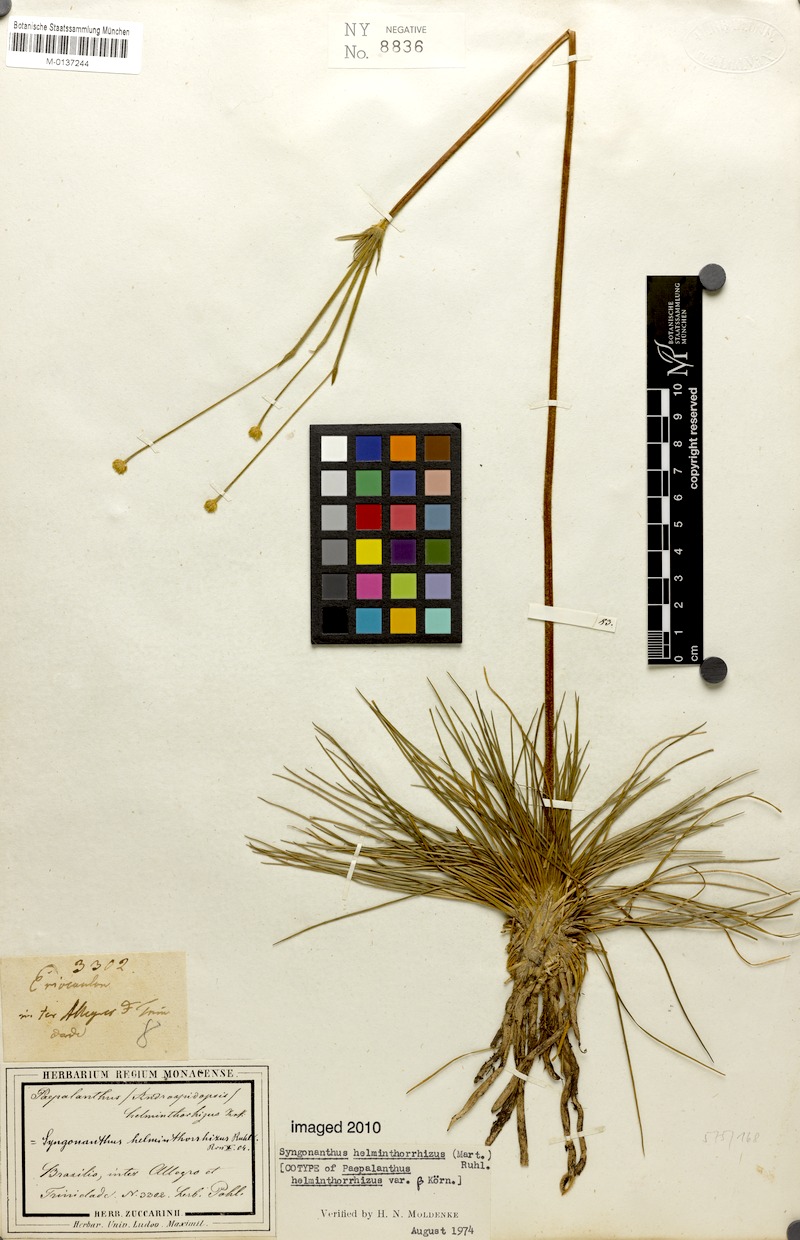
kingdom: Plantae
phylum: Tracheophyta
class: Liliopsida
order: Poales
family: Eriocaulaceae
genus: Syngonanthus
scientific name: Syngonanthus helminthorrhizus
